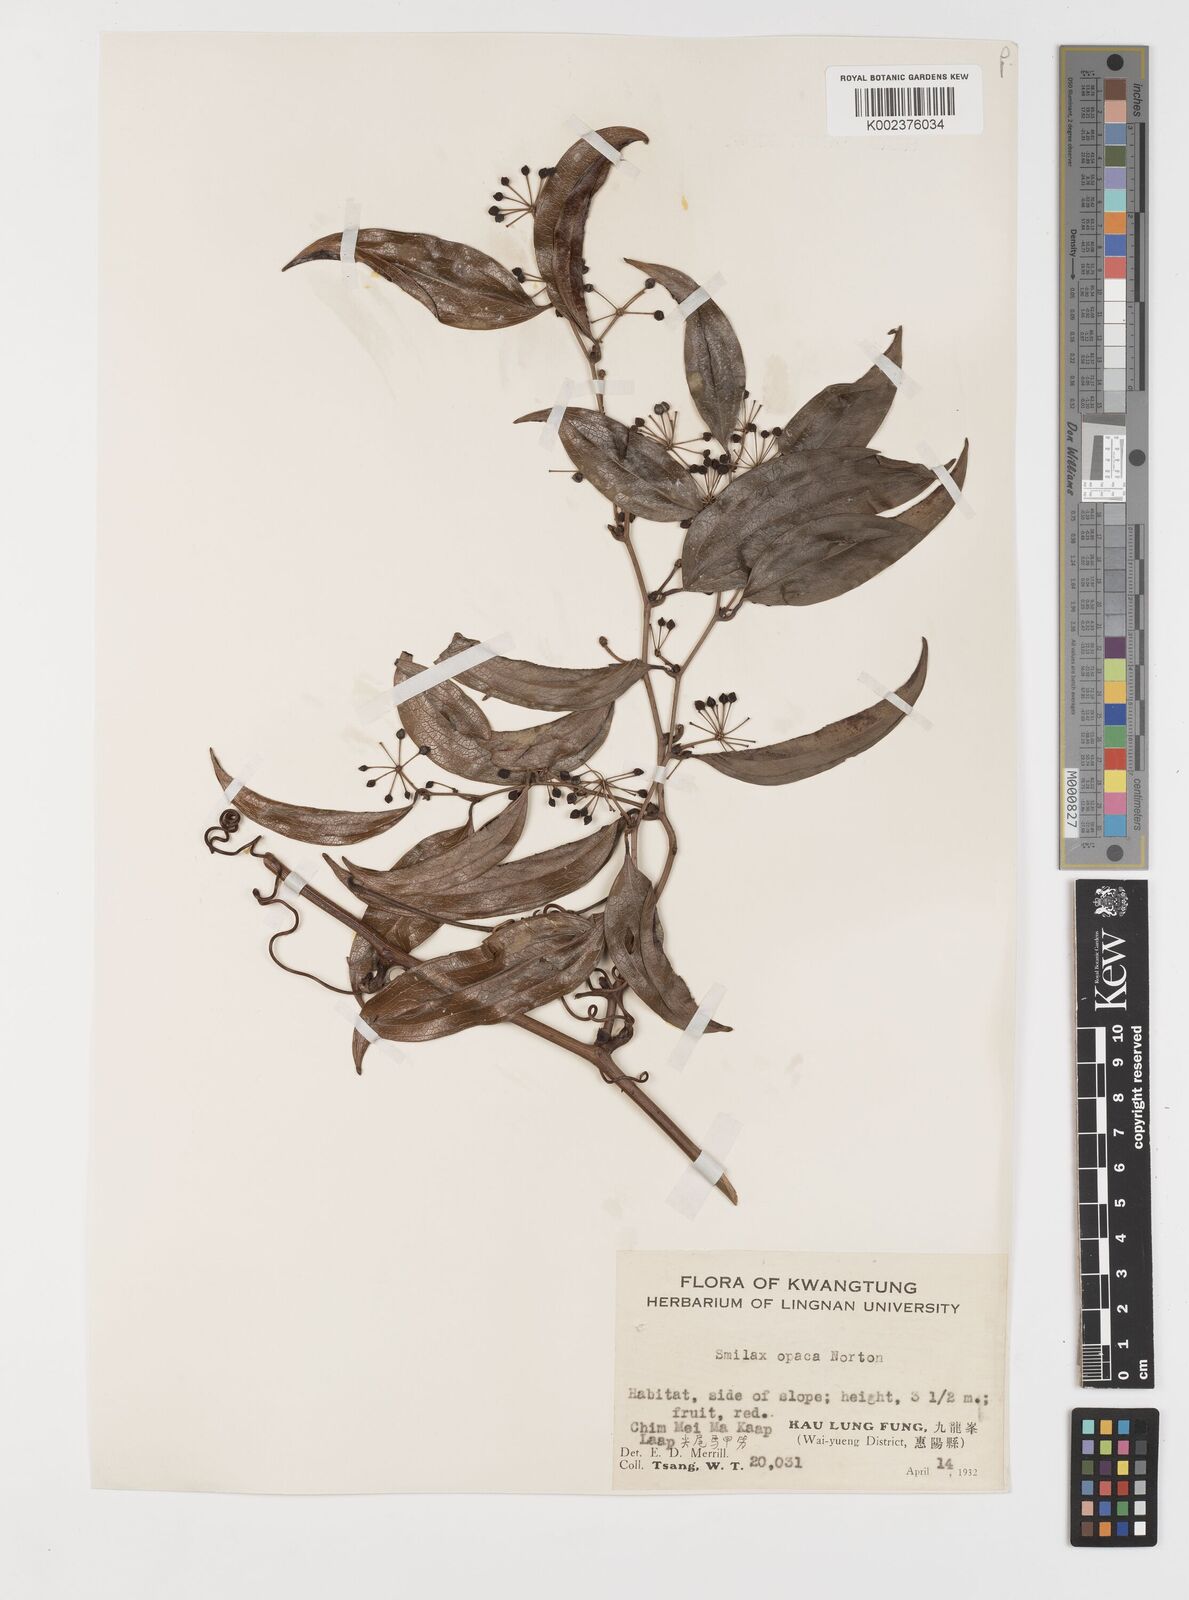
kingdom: Plantae
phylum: Tracheophyta
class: Liliopsida
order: Liliales
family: Smilacaceae
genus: Smilax
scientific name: Smilax laevis
